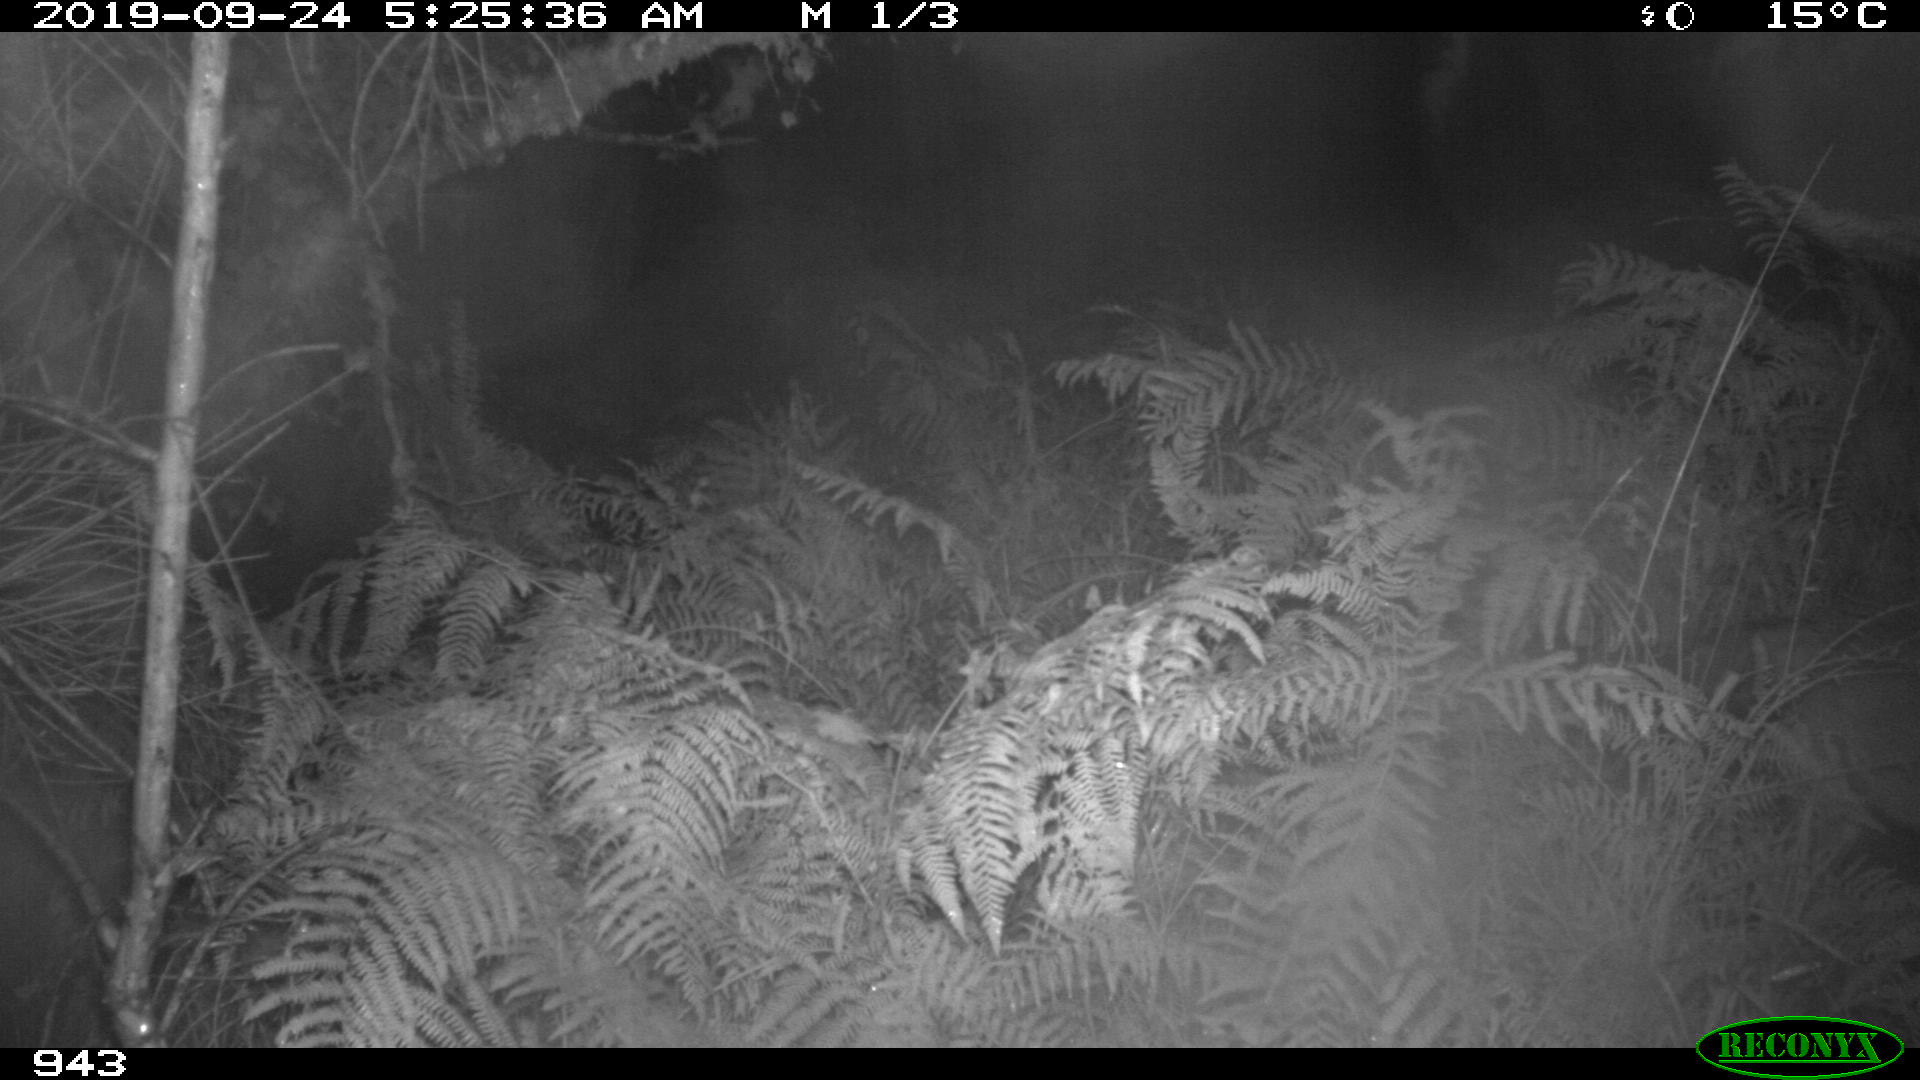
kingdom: Animalia
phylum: Chordata
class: Mammalia
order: Artiodactyla
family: Suidae
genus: Sus
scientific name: Sus scrofa
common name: Wild boar
